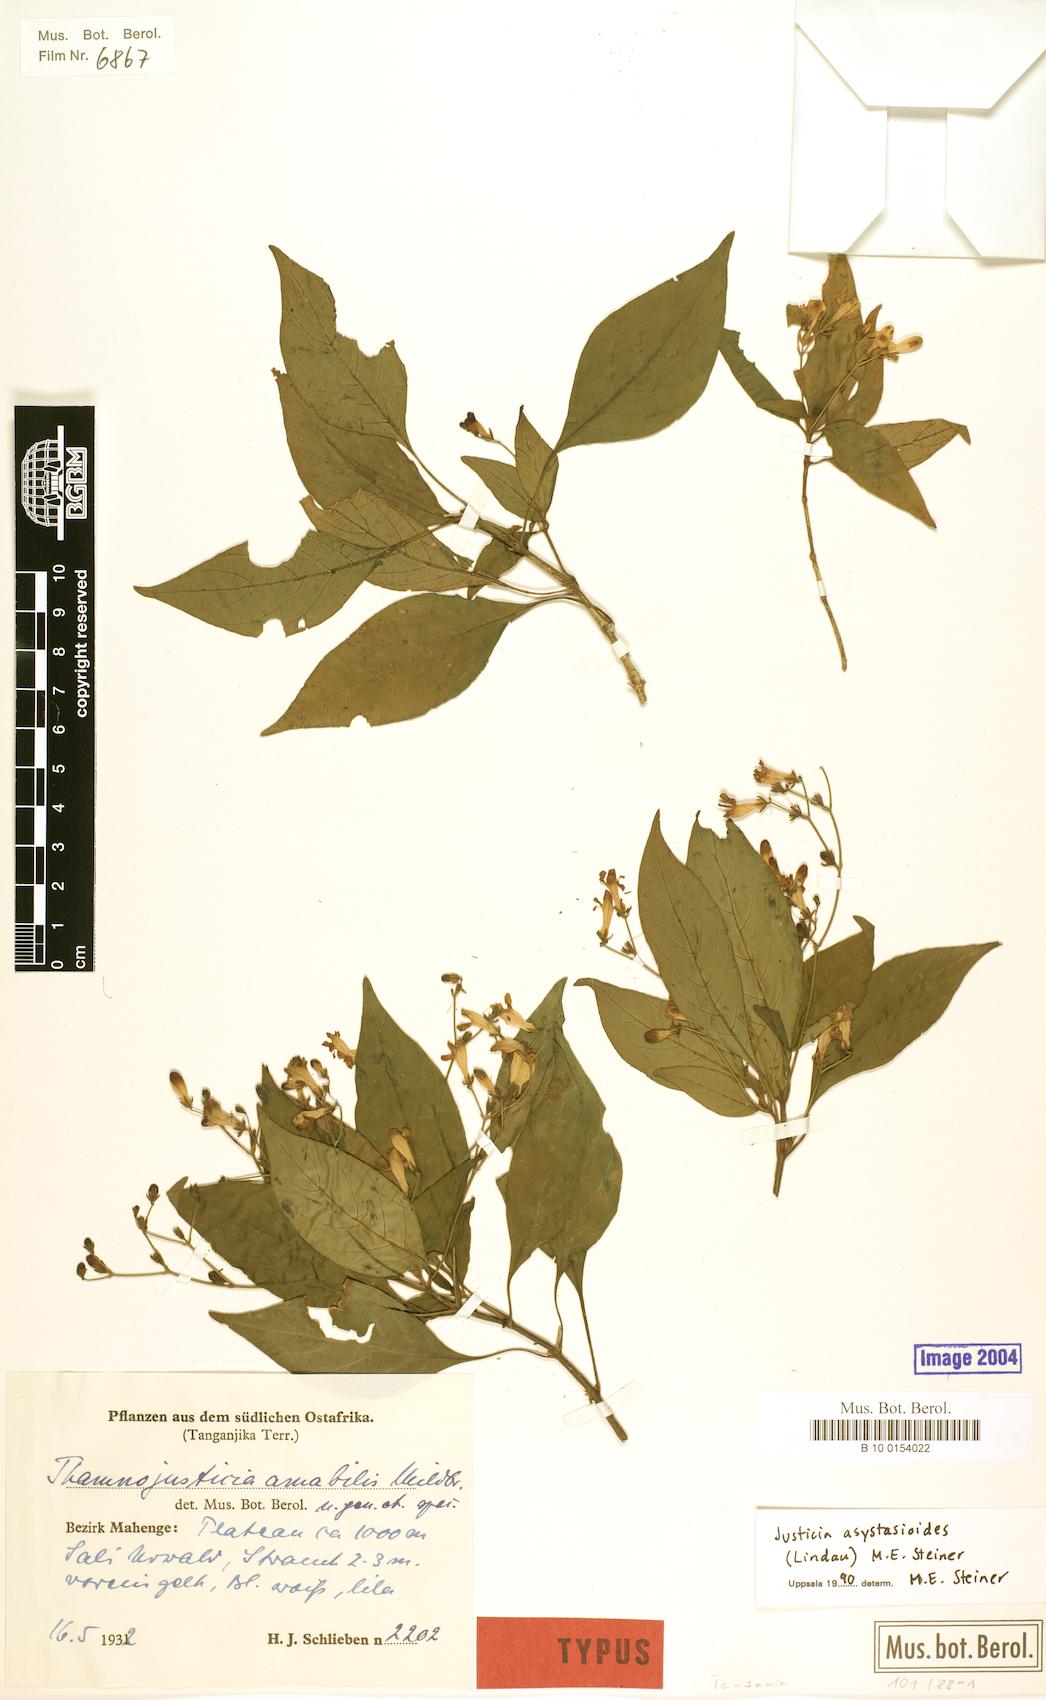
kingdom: Plantae
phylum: Tracheophyta
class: Magnoliopsida
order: Lamiales
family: Acanthaceae
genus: Justicia
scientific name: Justicia asystasioides
